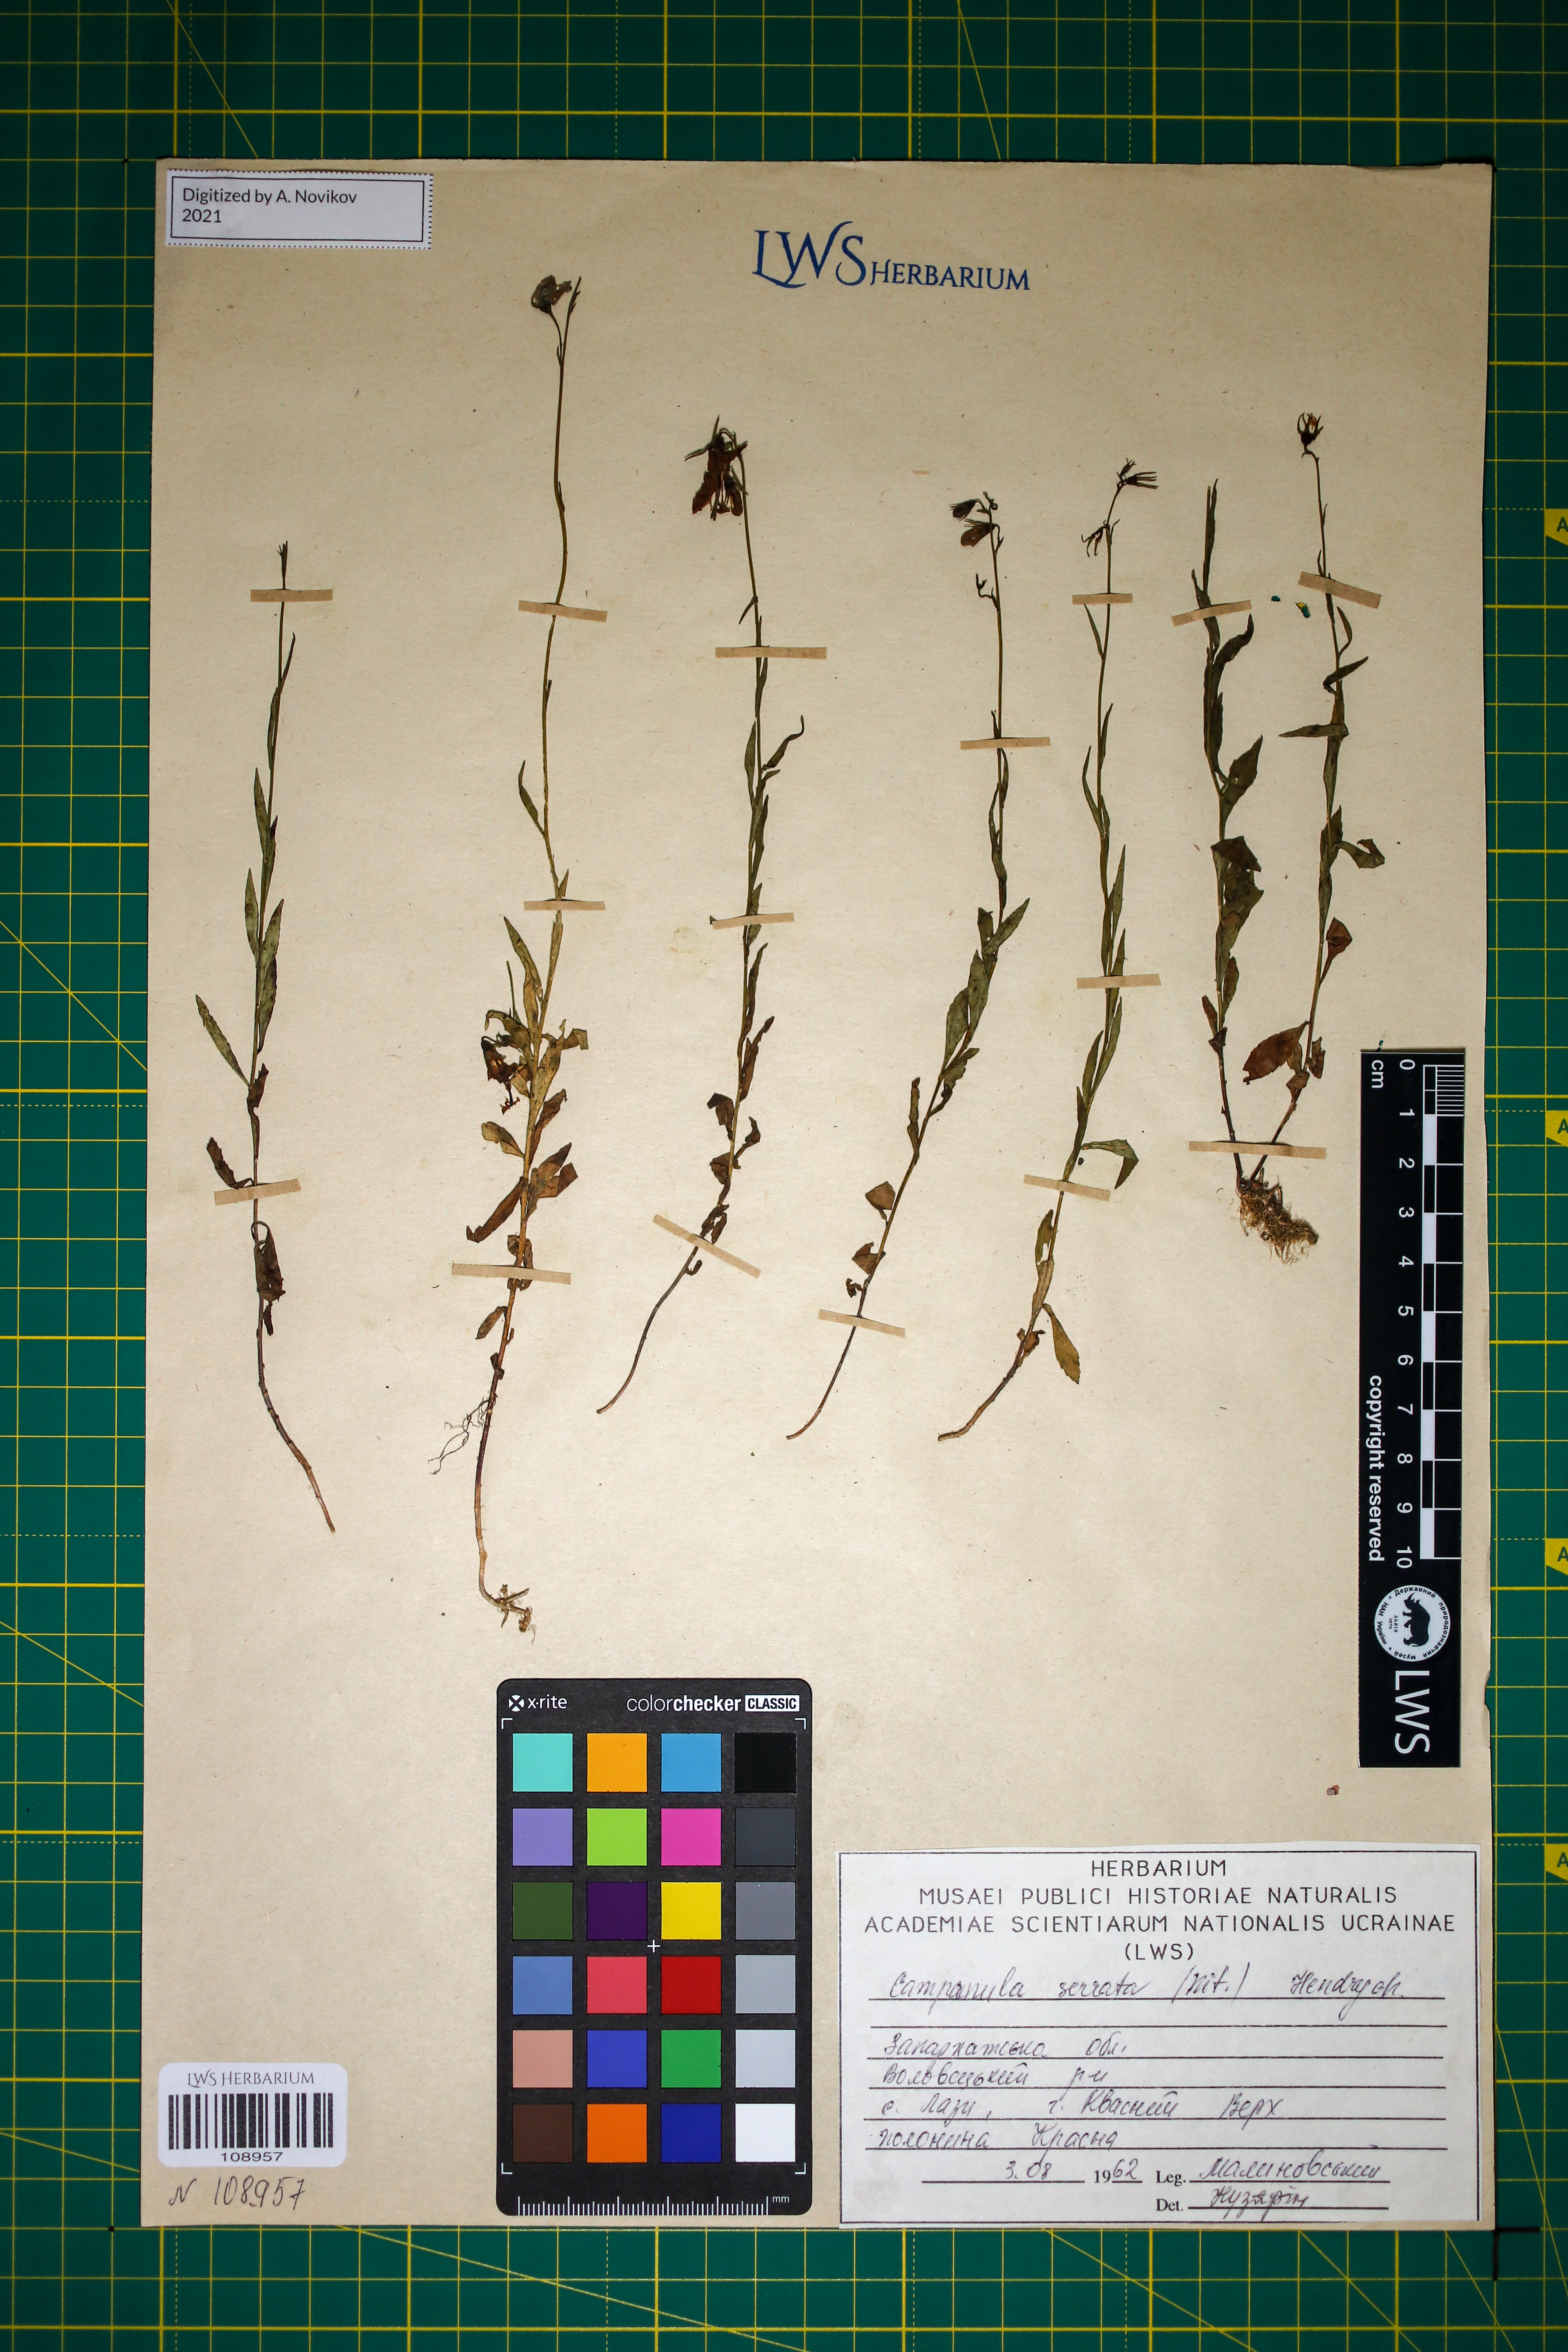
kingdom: Plantae
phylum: Tracheophyta
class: Magnoliopsida
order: Asterales
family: Campanulaceae
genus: Campanula
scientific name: Campanula serrata
